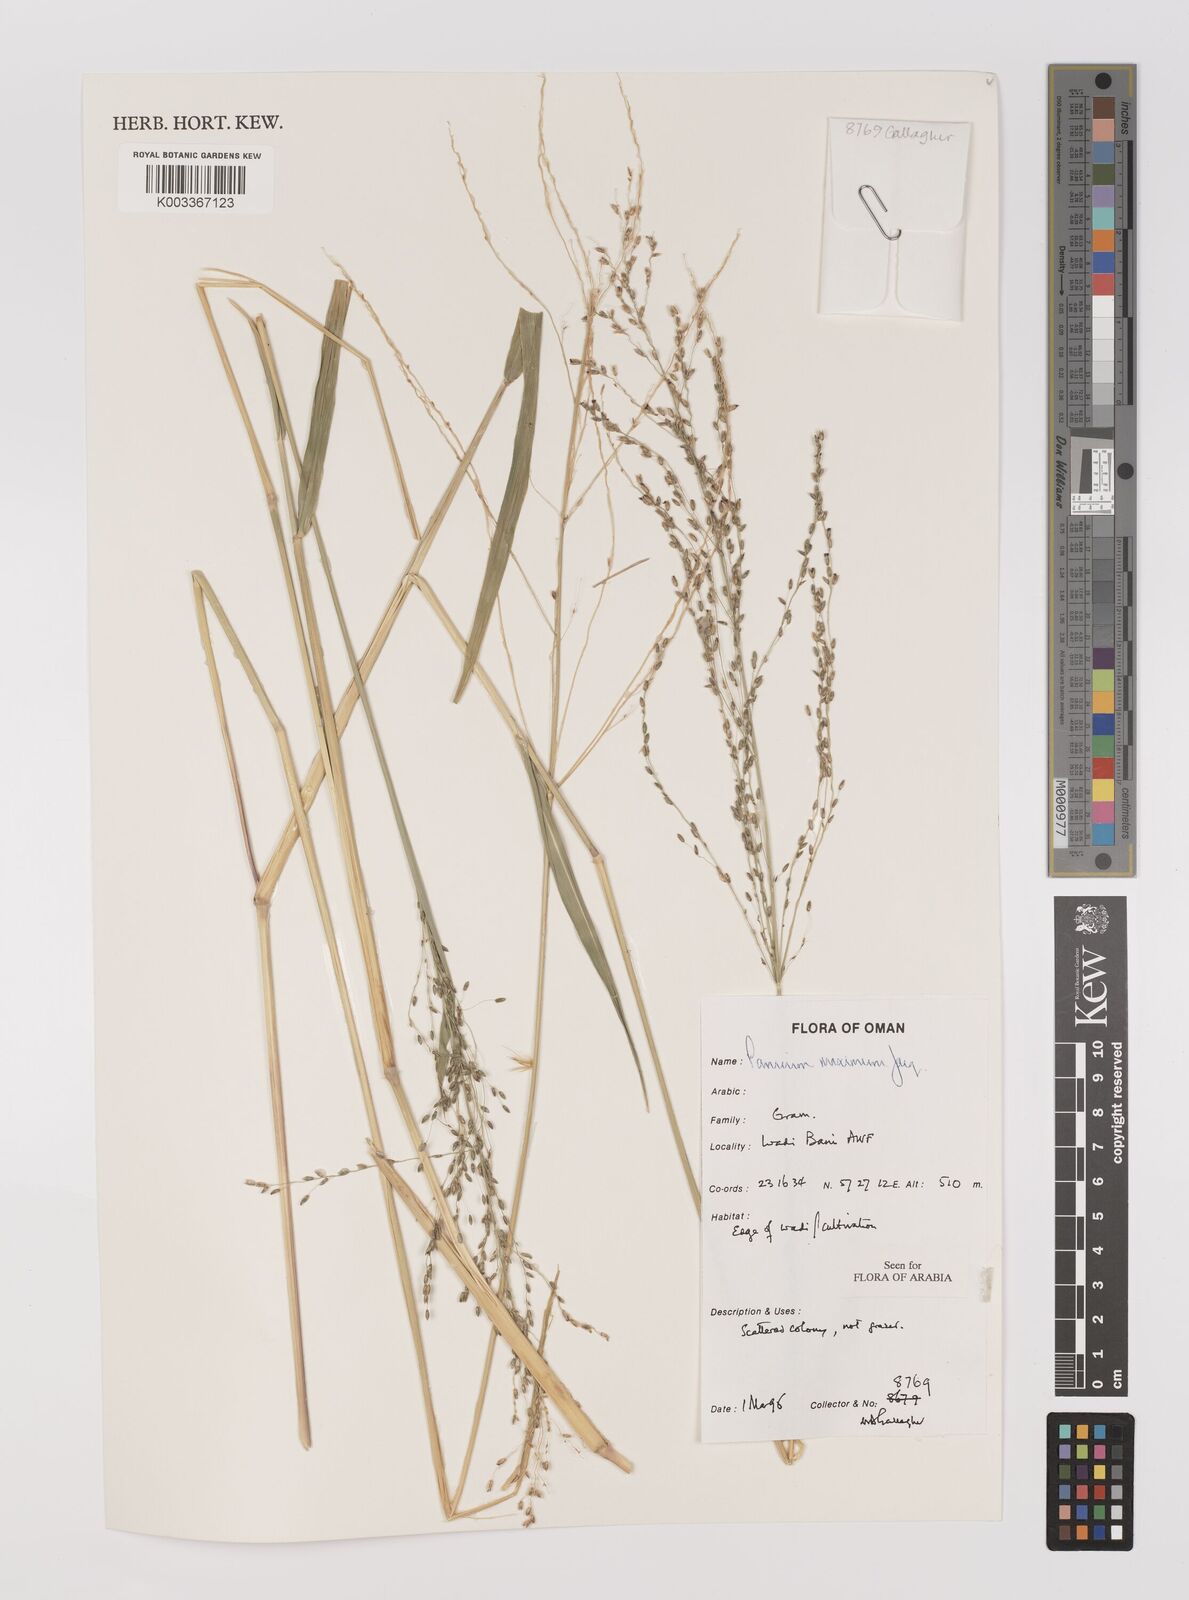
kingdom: Plantae
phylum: Tracheophyta
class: Liliopsida
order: Poales
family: Poaceae
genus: Megathyrsus
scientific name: Megathyrsus maximus
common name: Guineagrass
